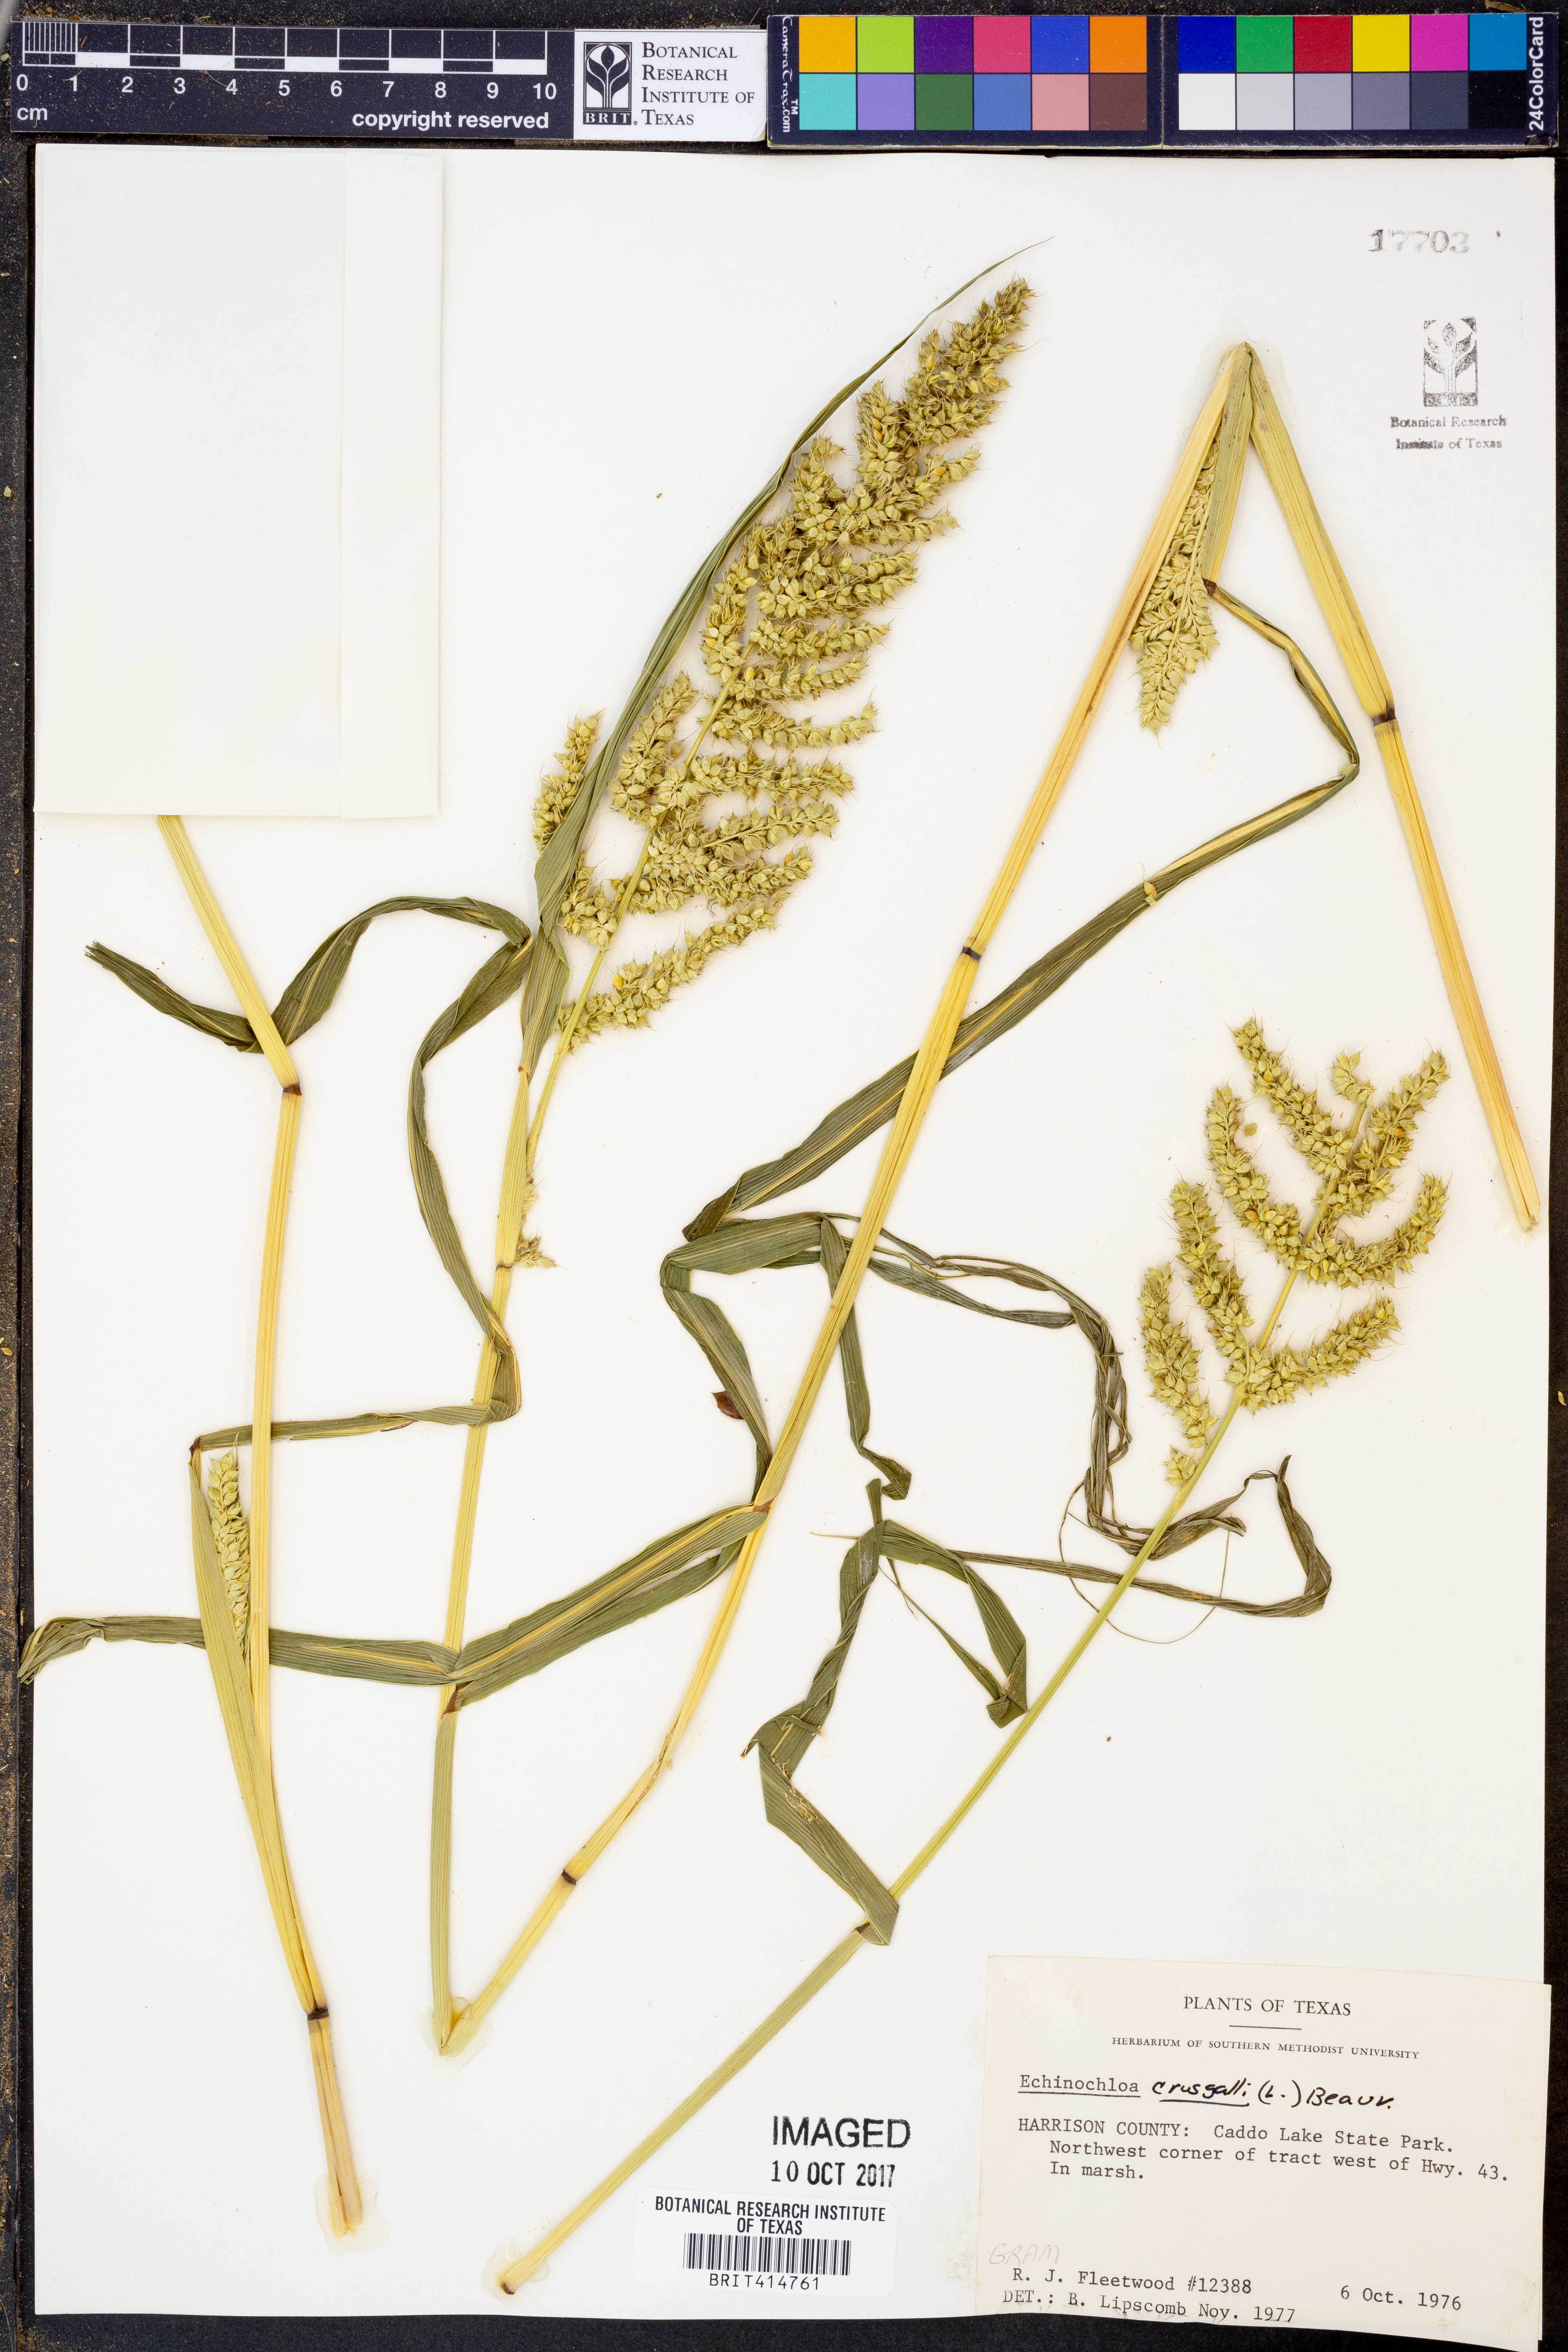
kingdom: Plantae
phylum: Tracheophyta
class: Liliopsida
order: Poales
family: Poaceae
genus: Echinochloa
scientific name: Echinochloa
